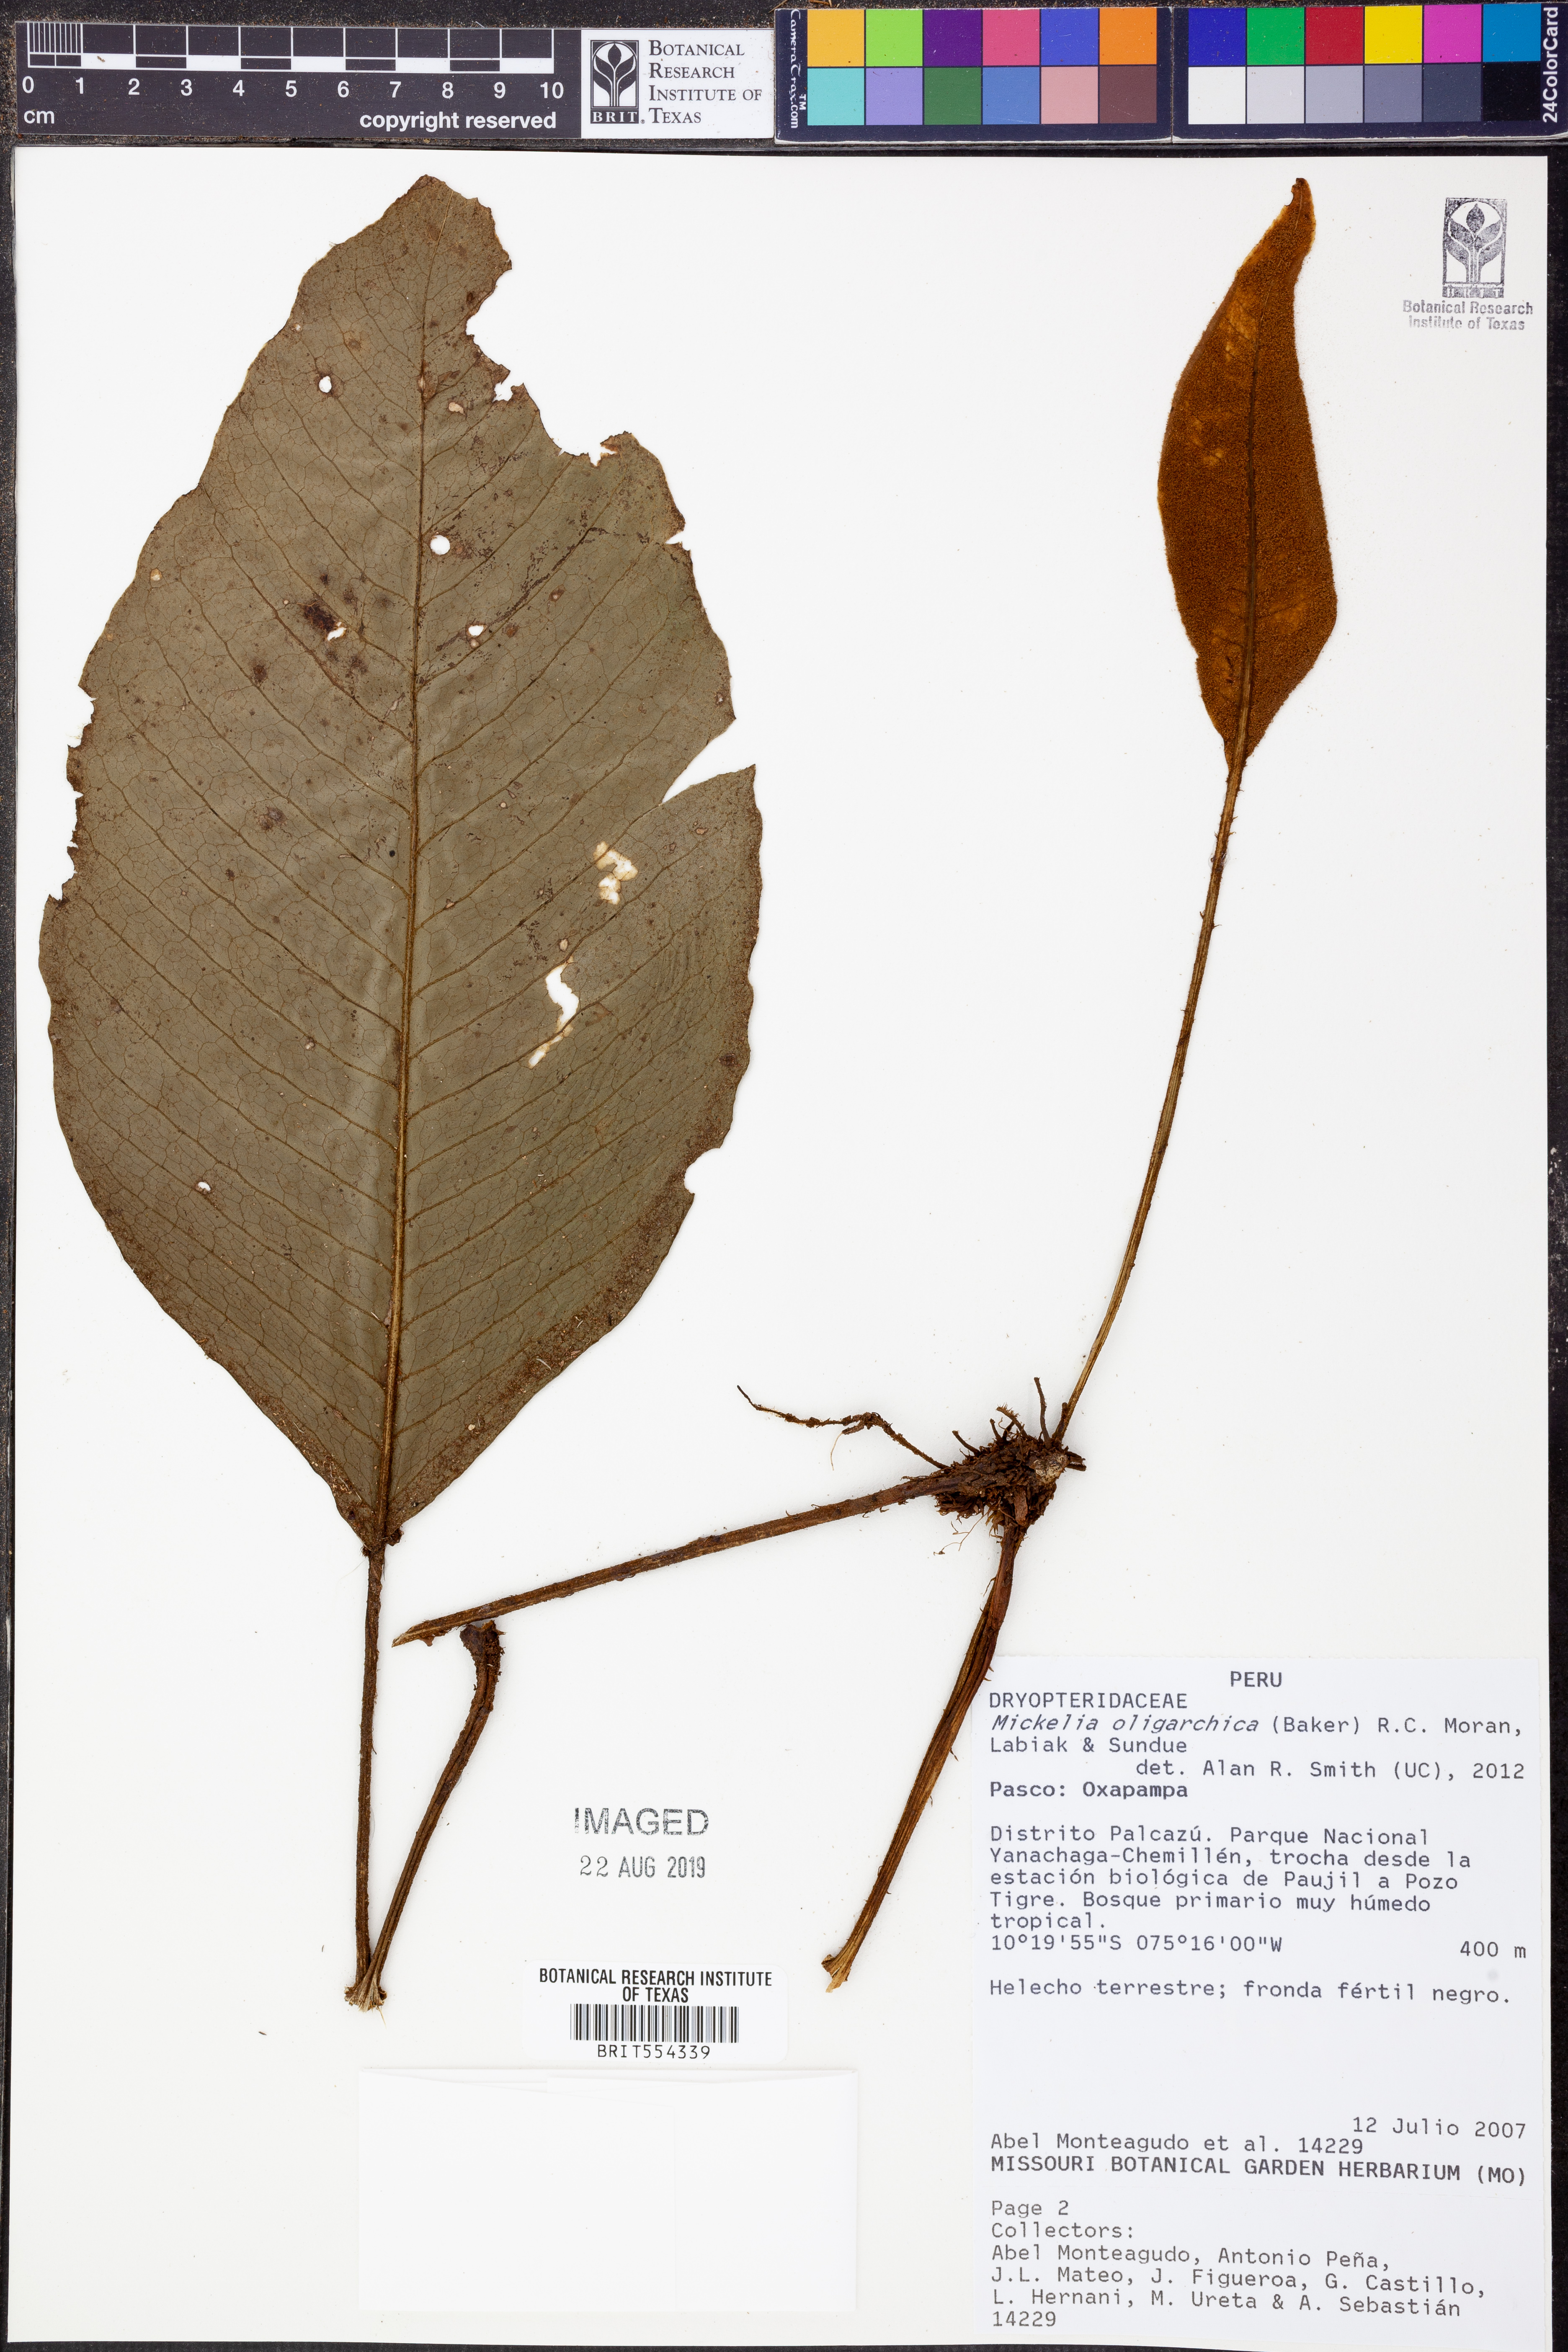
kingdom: Plantae
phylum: Tracheophyta
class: Polypodiopsida
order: Polypodiales
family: Dryopteridaceae
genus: Mickelia
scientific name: Mickelia oligarchica
